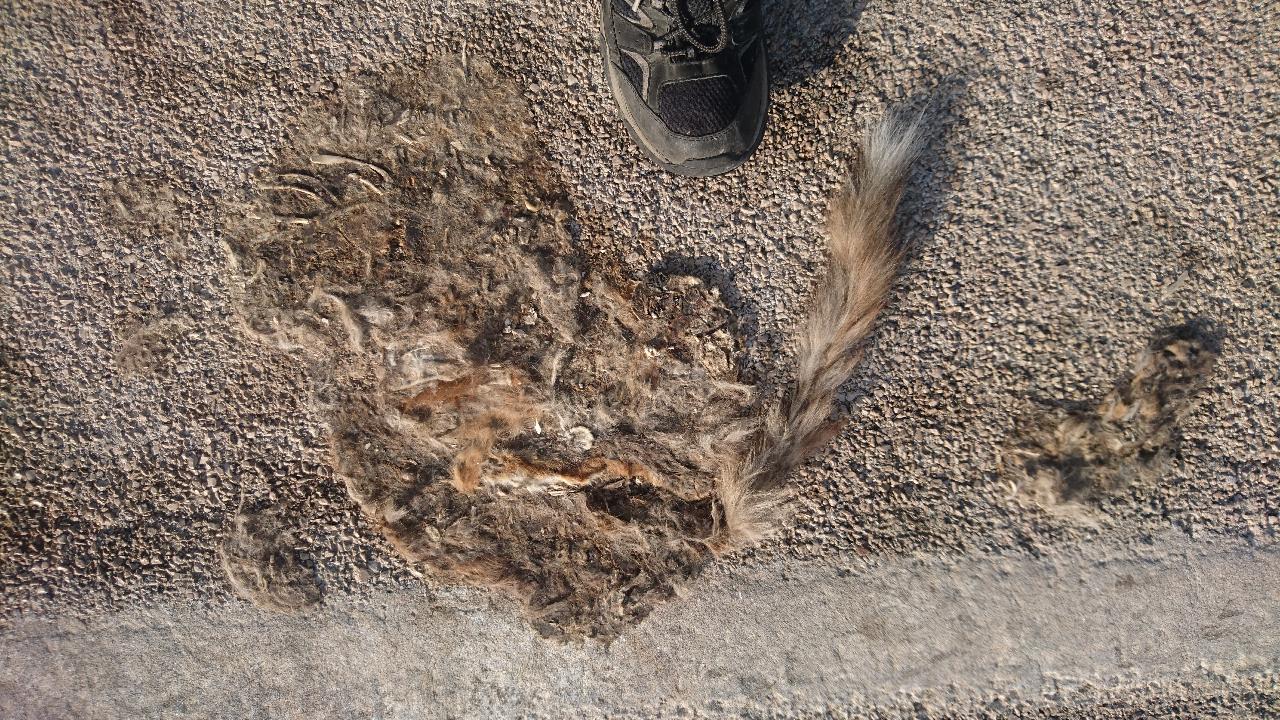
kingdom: Animalia
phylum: Chordata
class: Mammalia
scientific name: Mammalia
